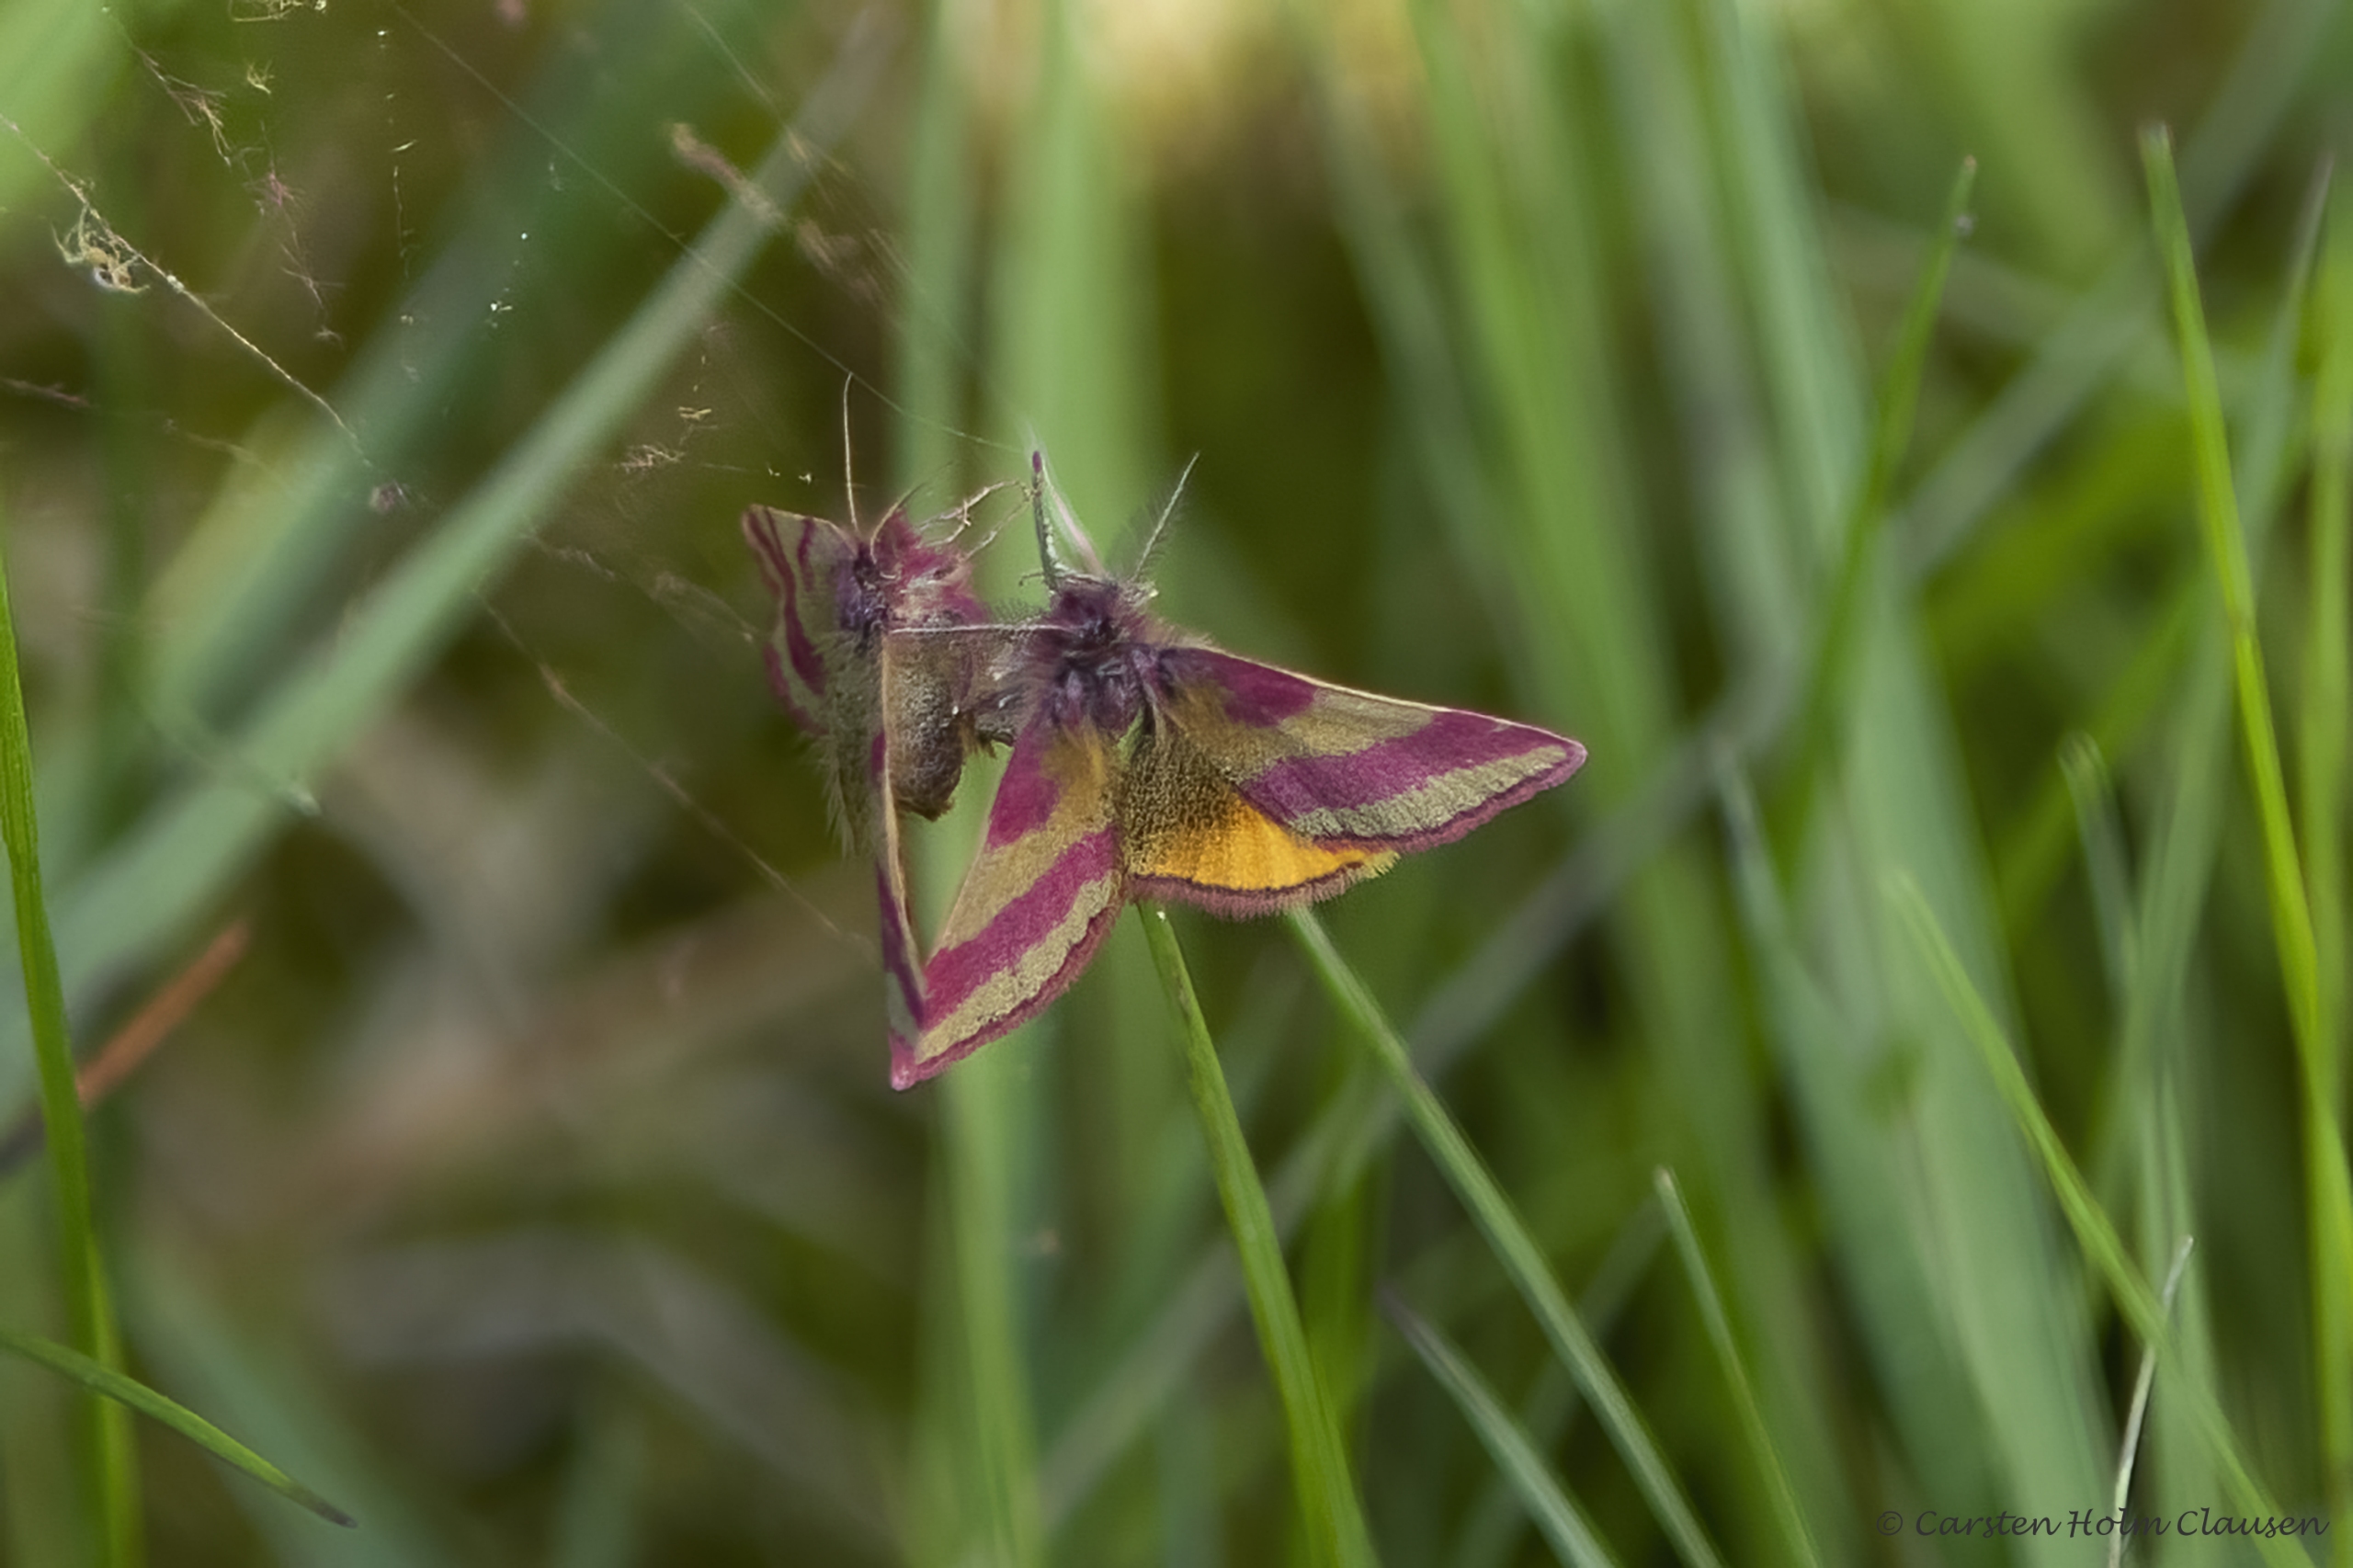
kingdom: Animalia
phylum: Arthropoda
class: Insecta
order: Lepidoptera
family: Geometridae
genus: Lythria
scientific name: Lythria cruentaria
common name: Purpurmåler
